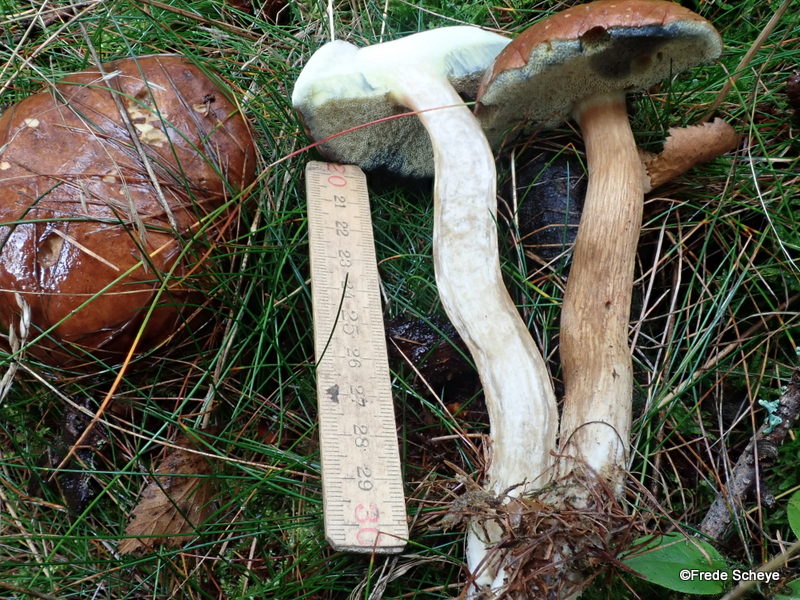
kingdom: Fungi
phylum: Basidiomycota
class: Agaricomycetes
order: Boletales
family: Boletaceae
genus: Imleria
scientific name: Imleria badia
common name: brunstokket rørhat
